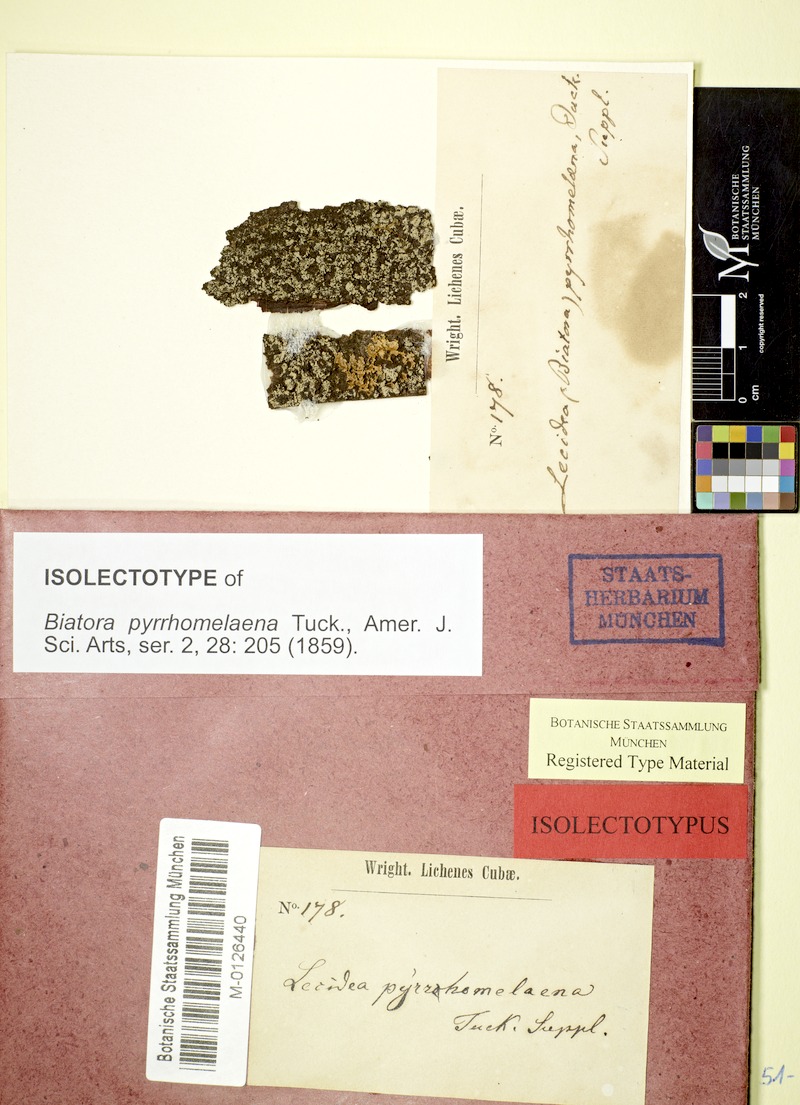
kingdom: Fungi
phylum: Ascomycota
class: Lecanoromycetes
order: Lecanorales
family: Ramalinaceae
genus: Phyllopsora
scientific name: Phyllopsora pyrrhomelaena
